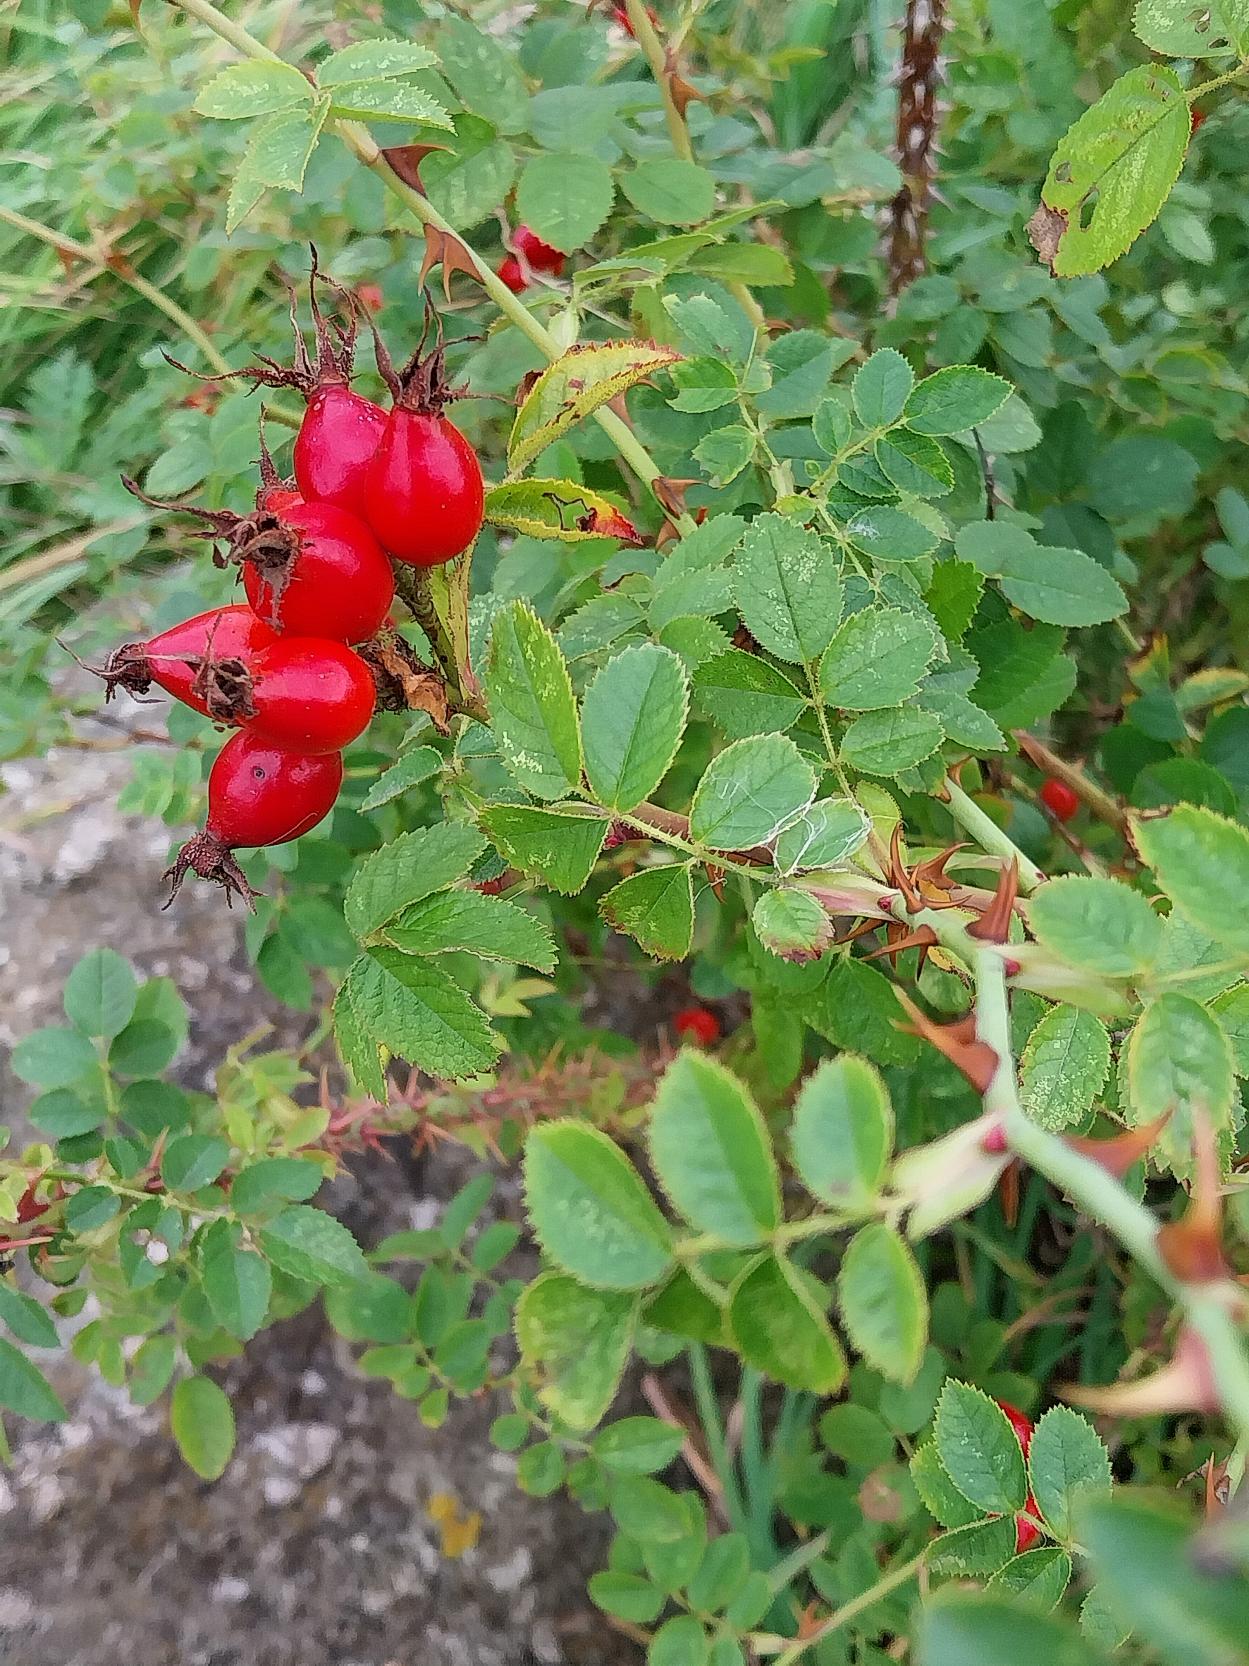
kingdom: Plantae
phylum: Tracheophyta
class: Magnoliopsida
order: Rosales
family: Rosaceae
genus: Rosa
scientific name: Rosa rubiginosa
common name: Æble-rose
